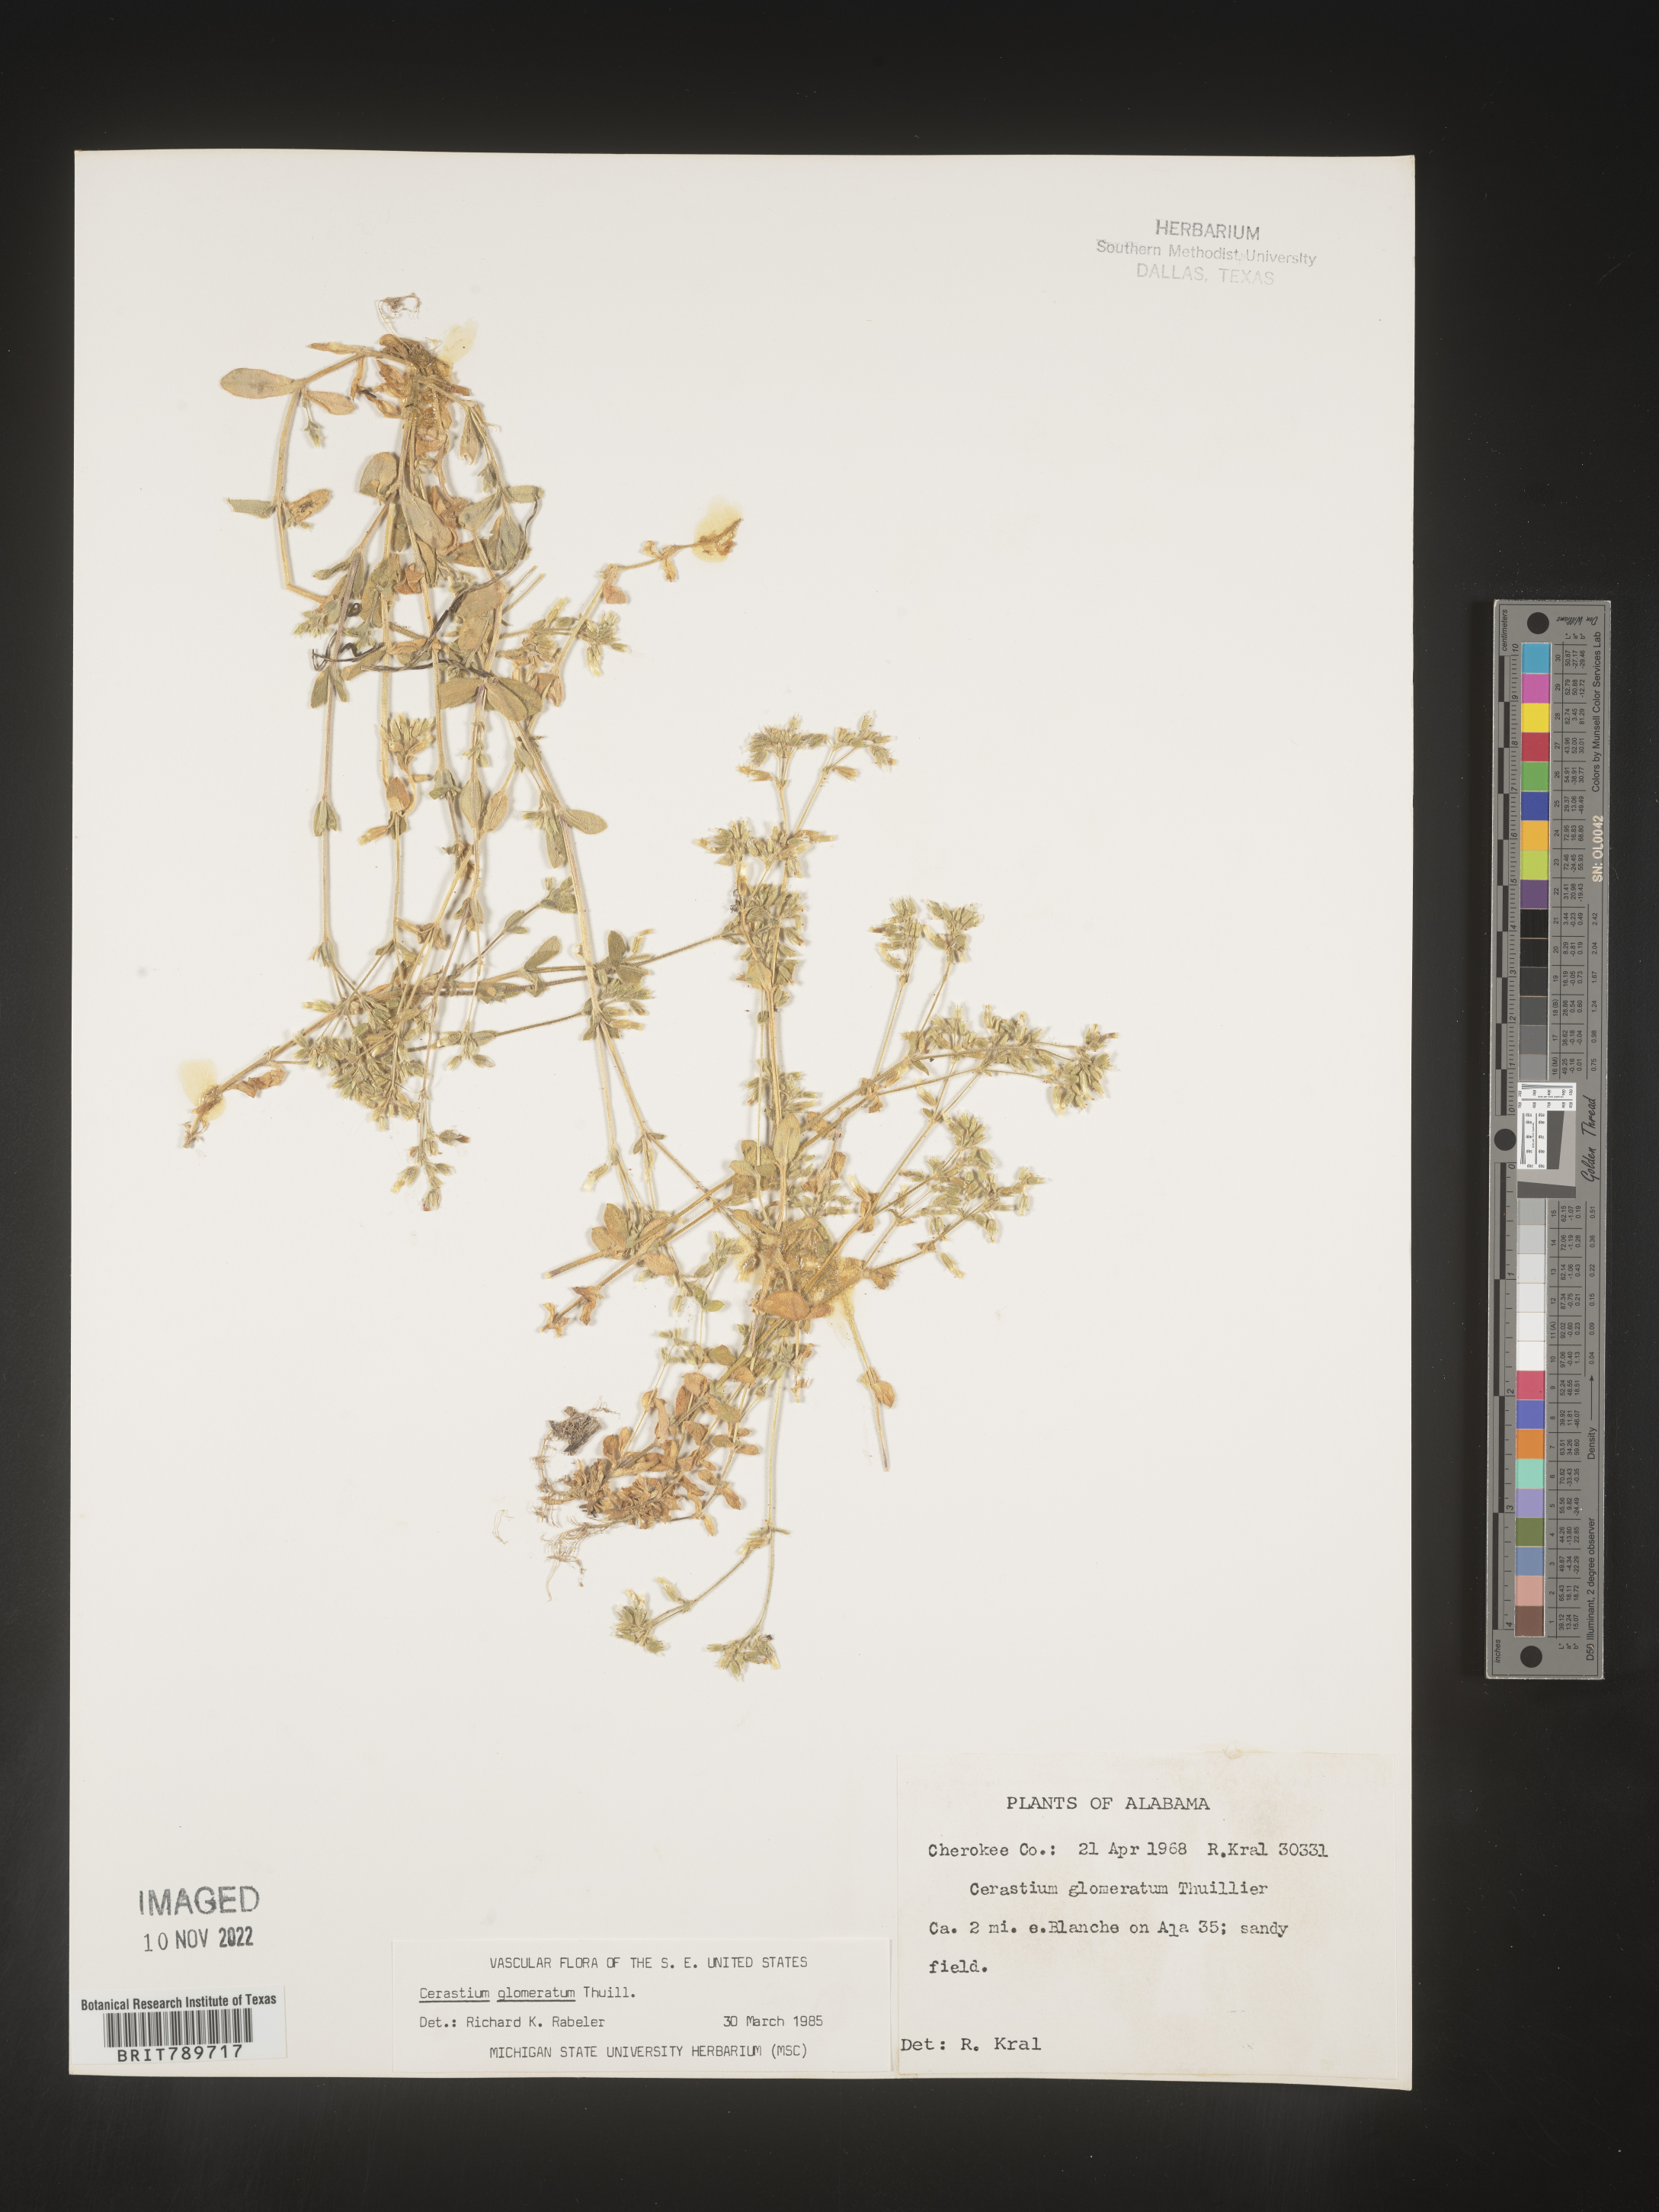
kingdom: Plantae
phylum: Tracheophyta
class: Magnoliopsida
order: Caryophyllales
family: Caryophyllaceae
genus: Cerastium
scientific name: Cerastium glomeratum
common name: Sticky chickweed
